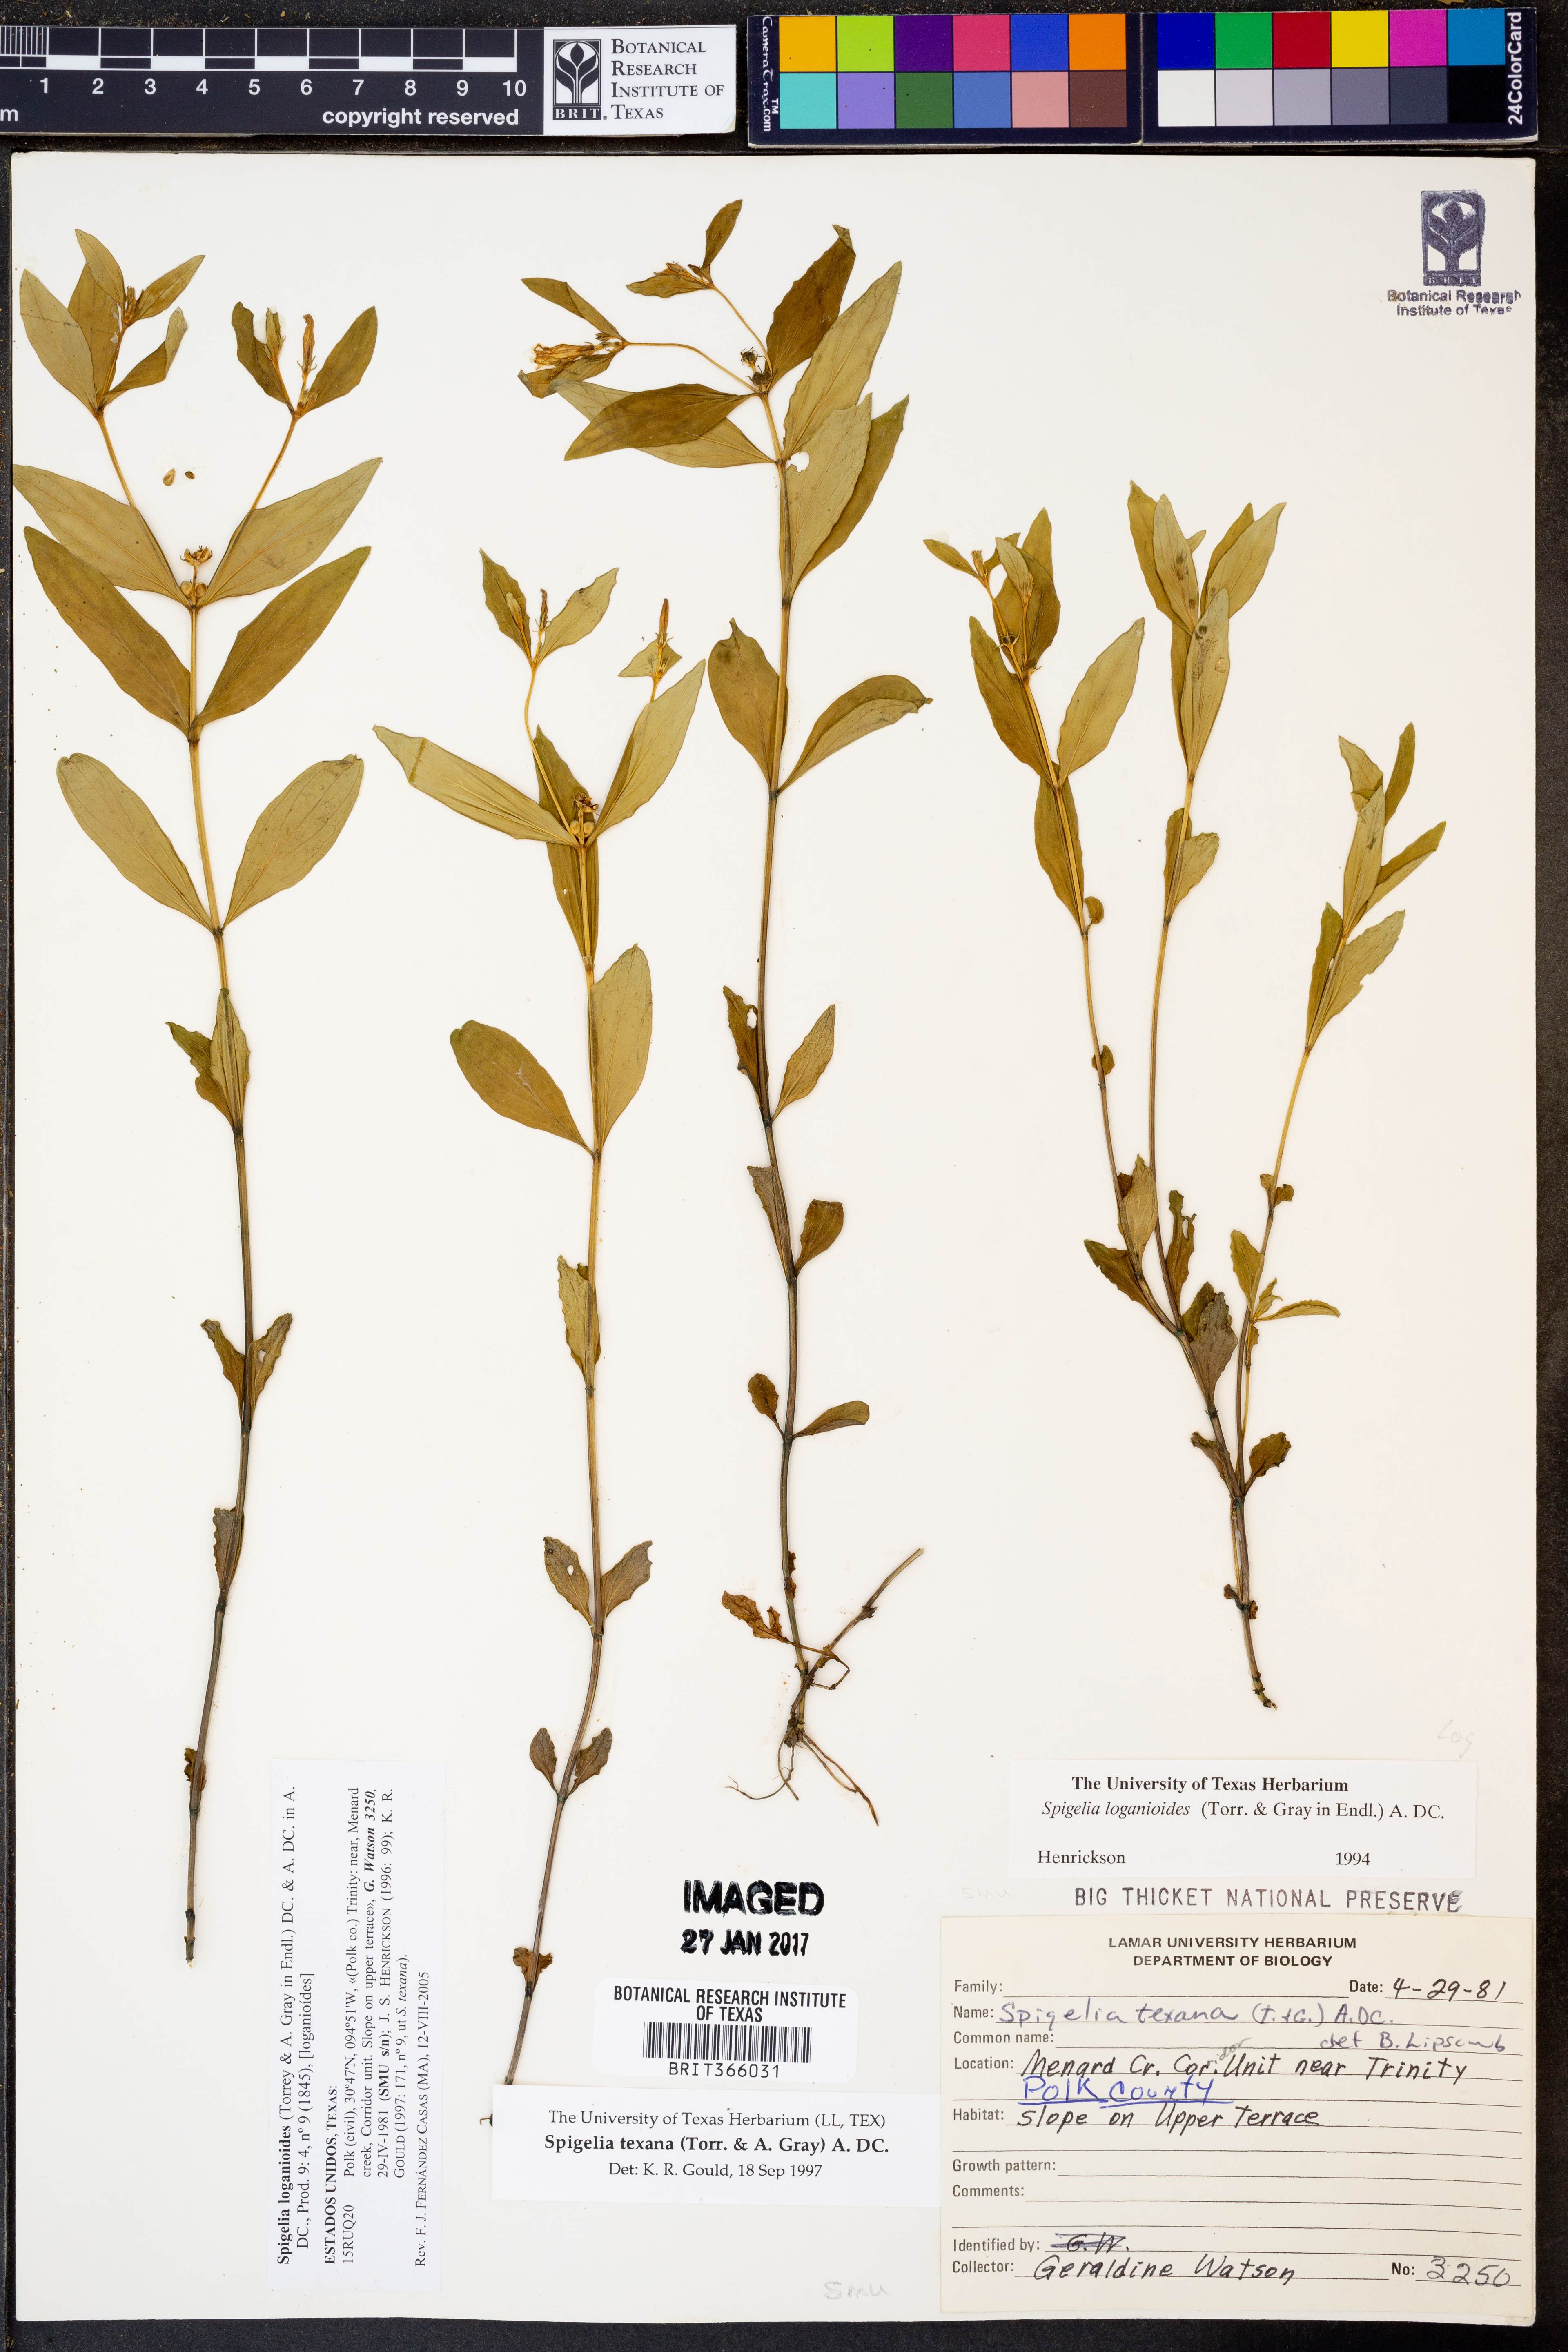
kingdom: Plantae
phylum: Tracheophyta
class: Magnoliopsida
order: Gentianales
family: Loganiaceae
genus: Spigelia
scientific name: Spigelia loganioides
